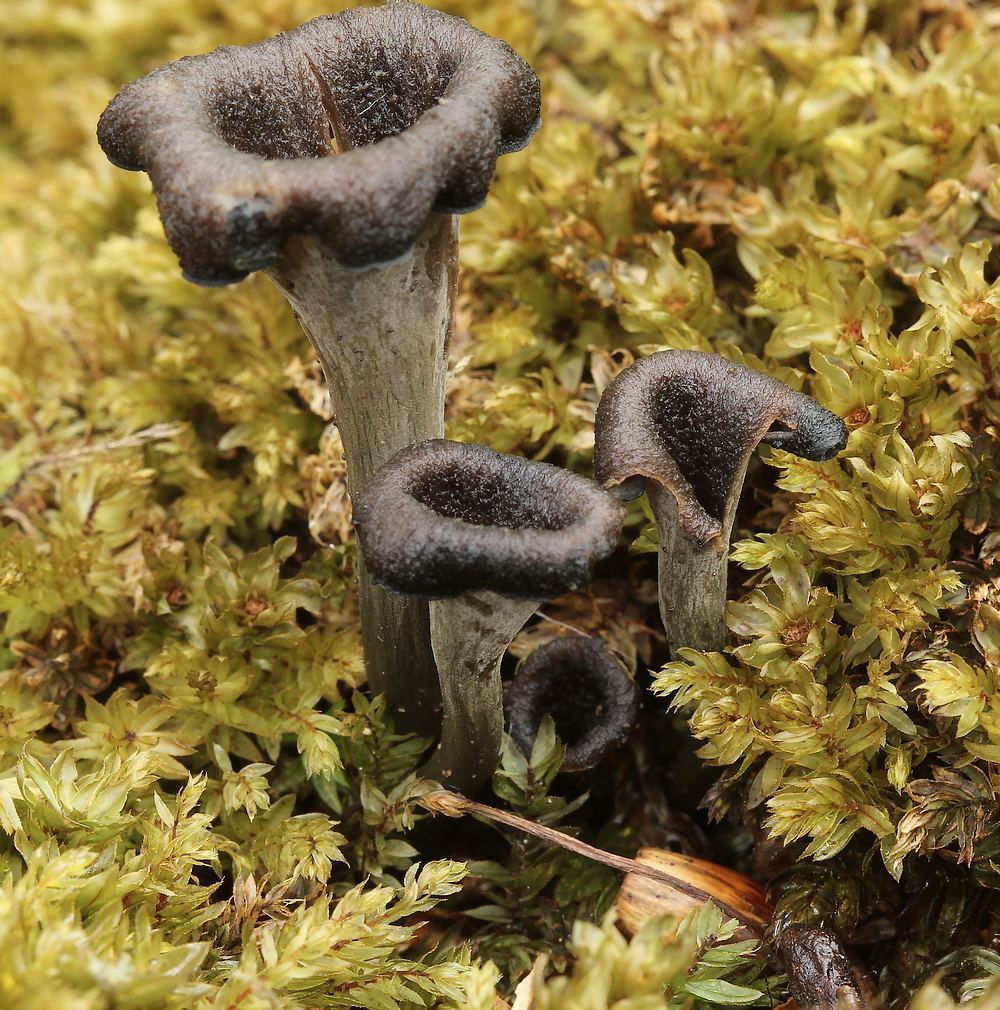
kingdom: Fungi
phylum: Basidiomycota
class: Agaricomycetes
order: Cantharellales
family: Hydnaceae
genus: Craterellus
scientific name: Craterellus cornucopioides
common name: trompetsvamp
